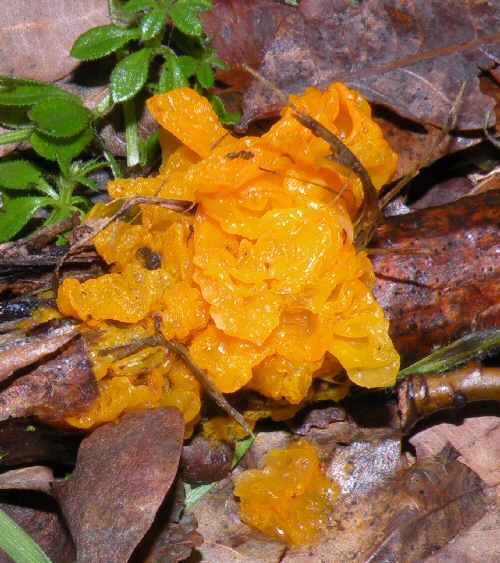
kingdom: Fungi
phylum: Basidiomycota
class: Tremellomycetes
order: Tremellales
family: Tremellaceae
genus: Tremella
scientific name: Tremella mesenterica
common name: gul bævresvamp
